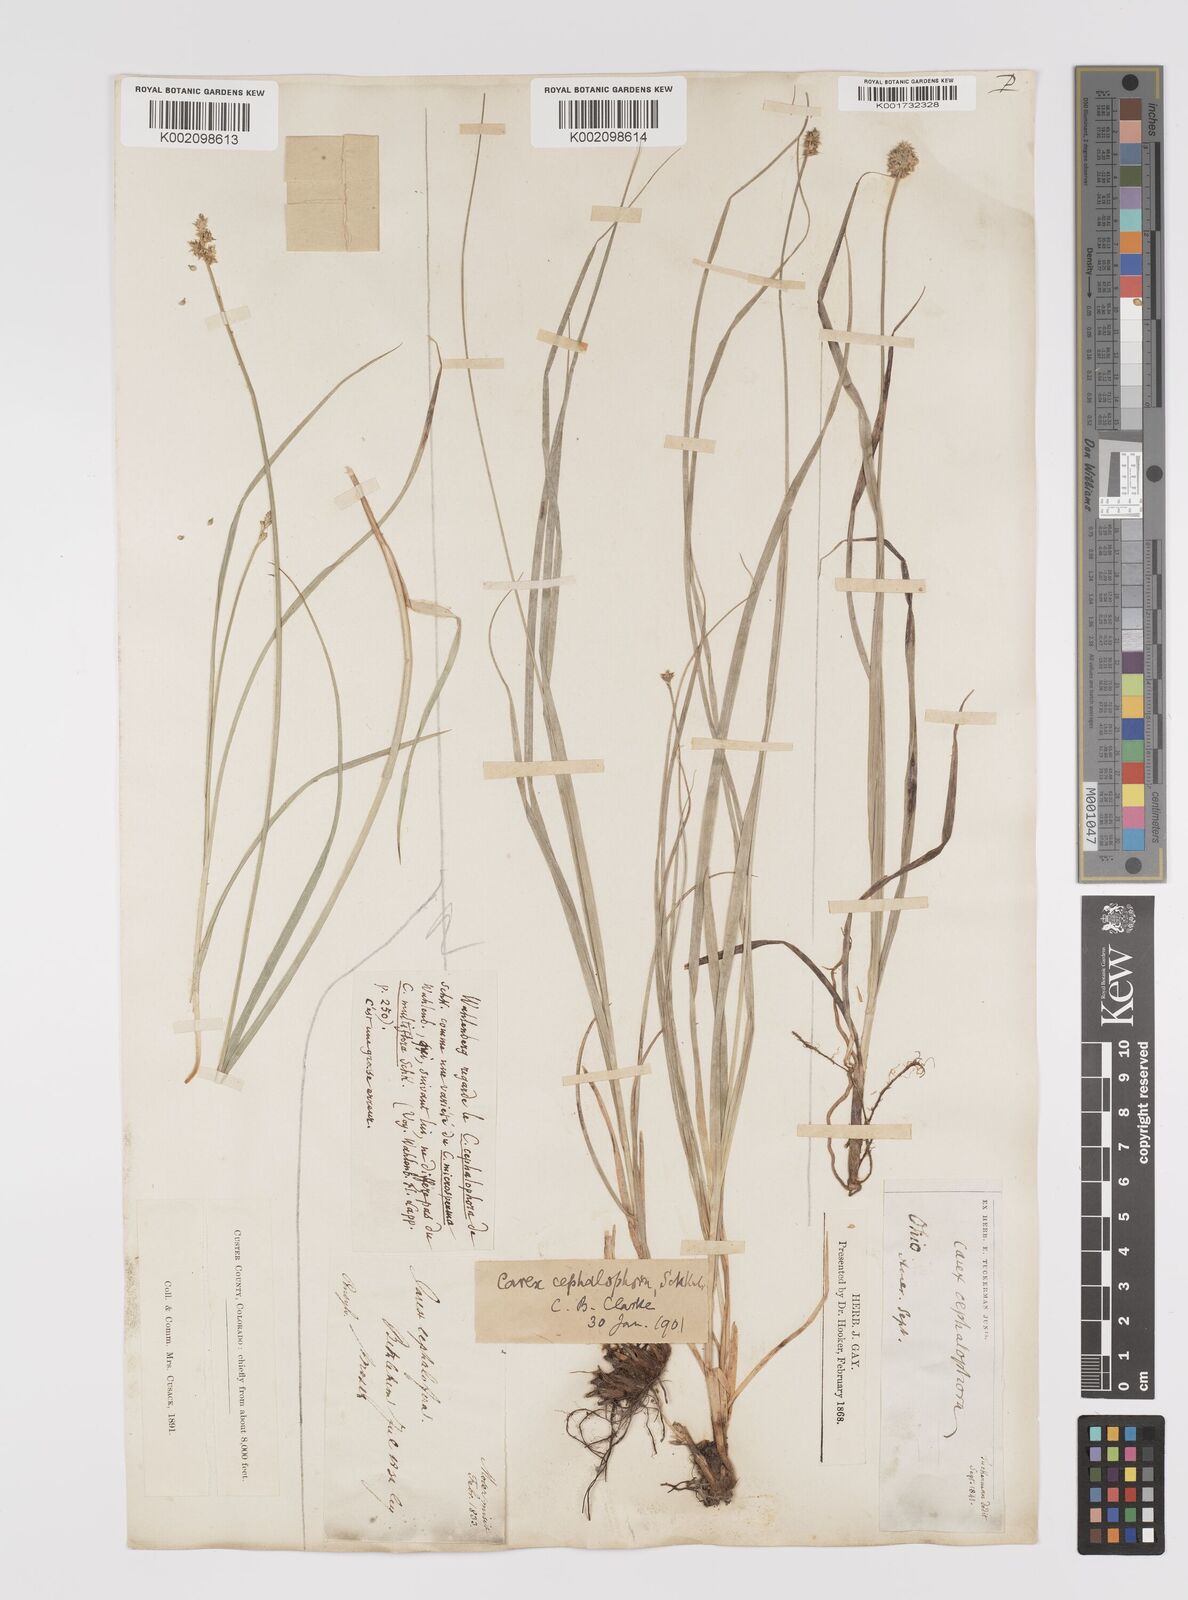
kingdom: Plantae
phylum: Tracheophyta
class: Liliopsida
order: Poales
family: Cyperaceae
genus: Carex
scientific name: Carex cephalophora
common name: Oval-headed sedge
